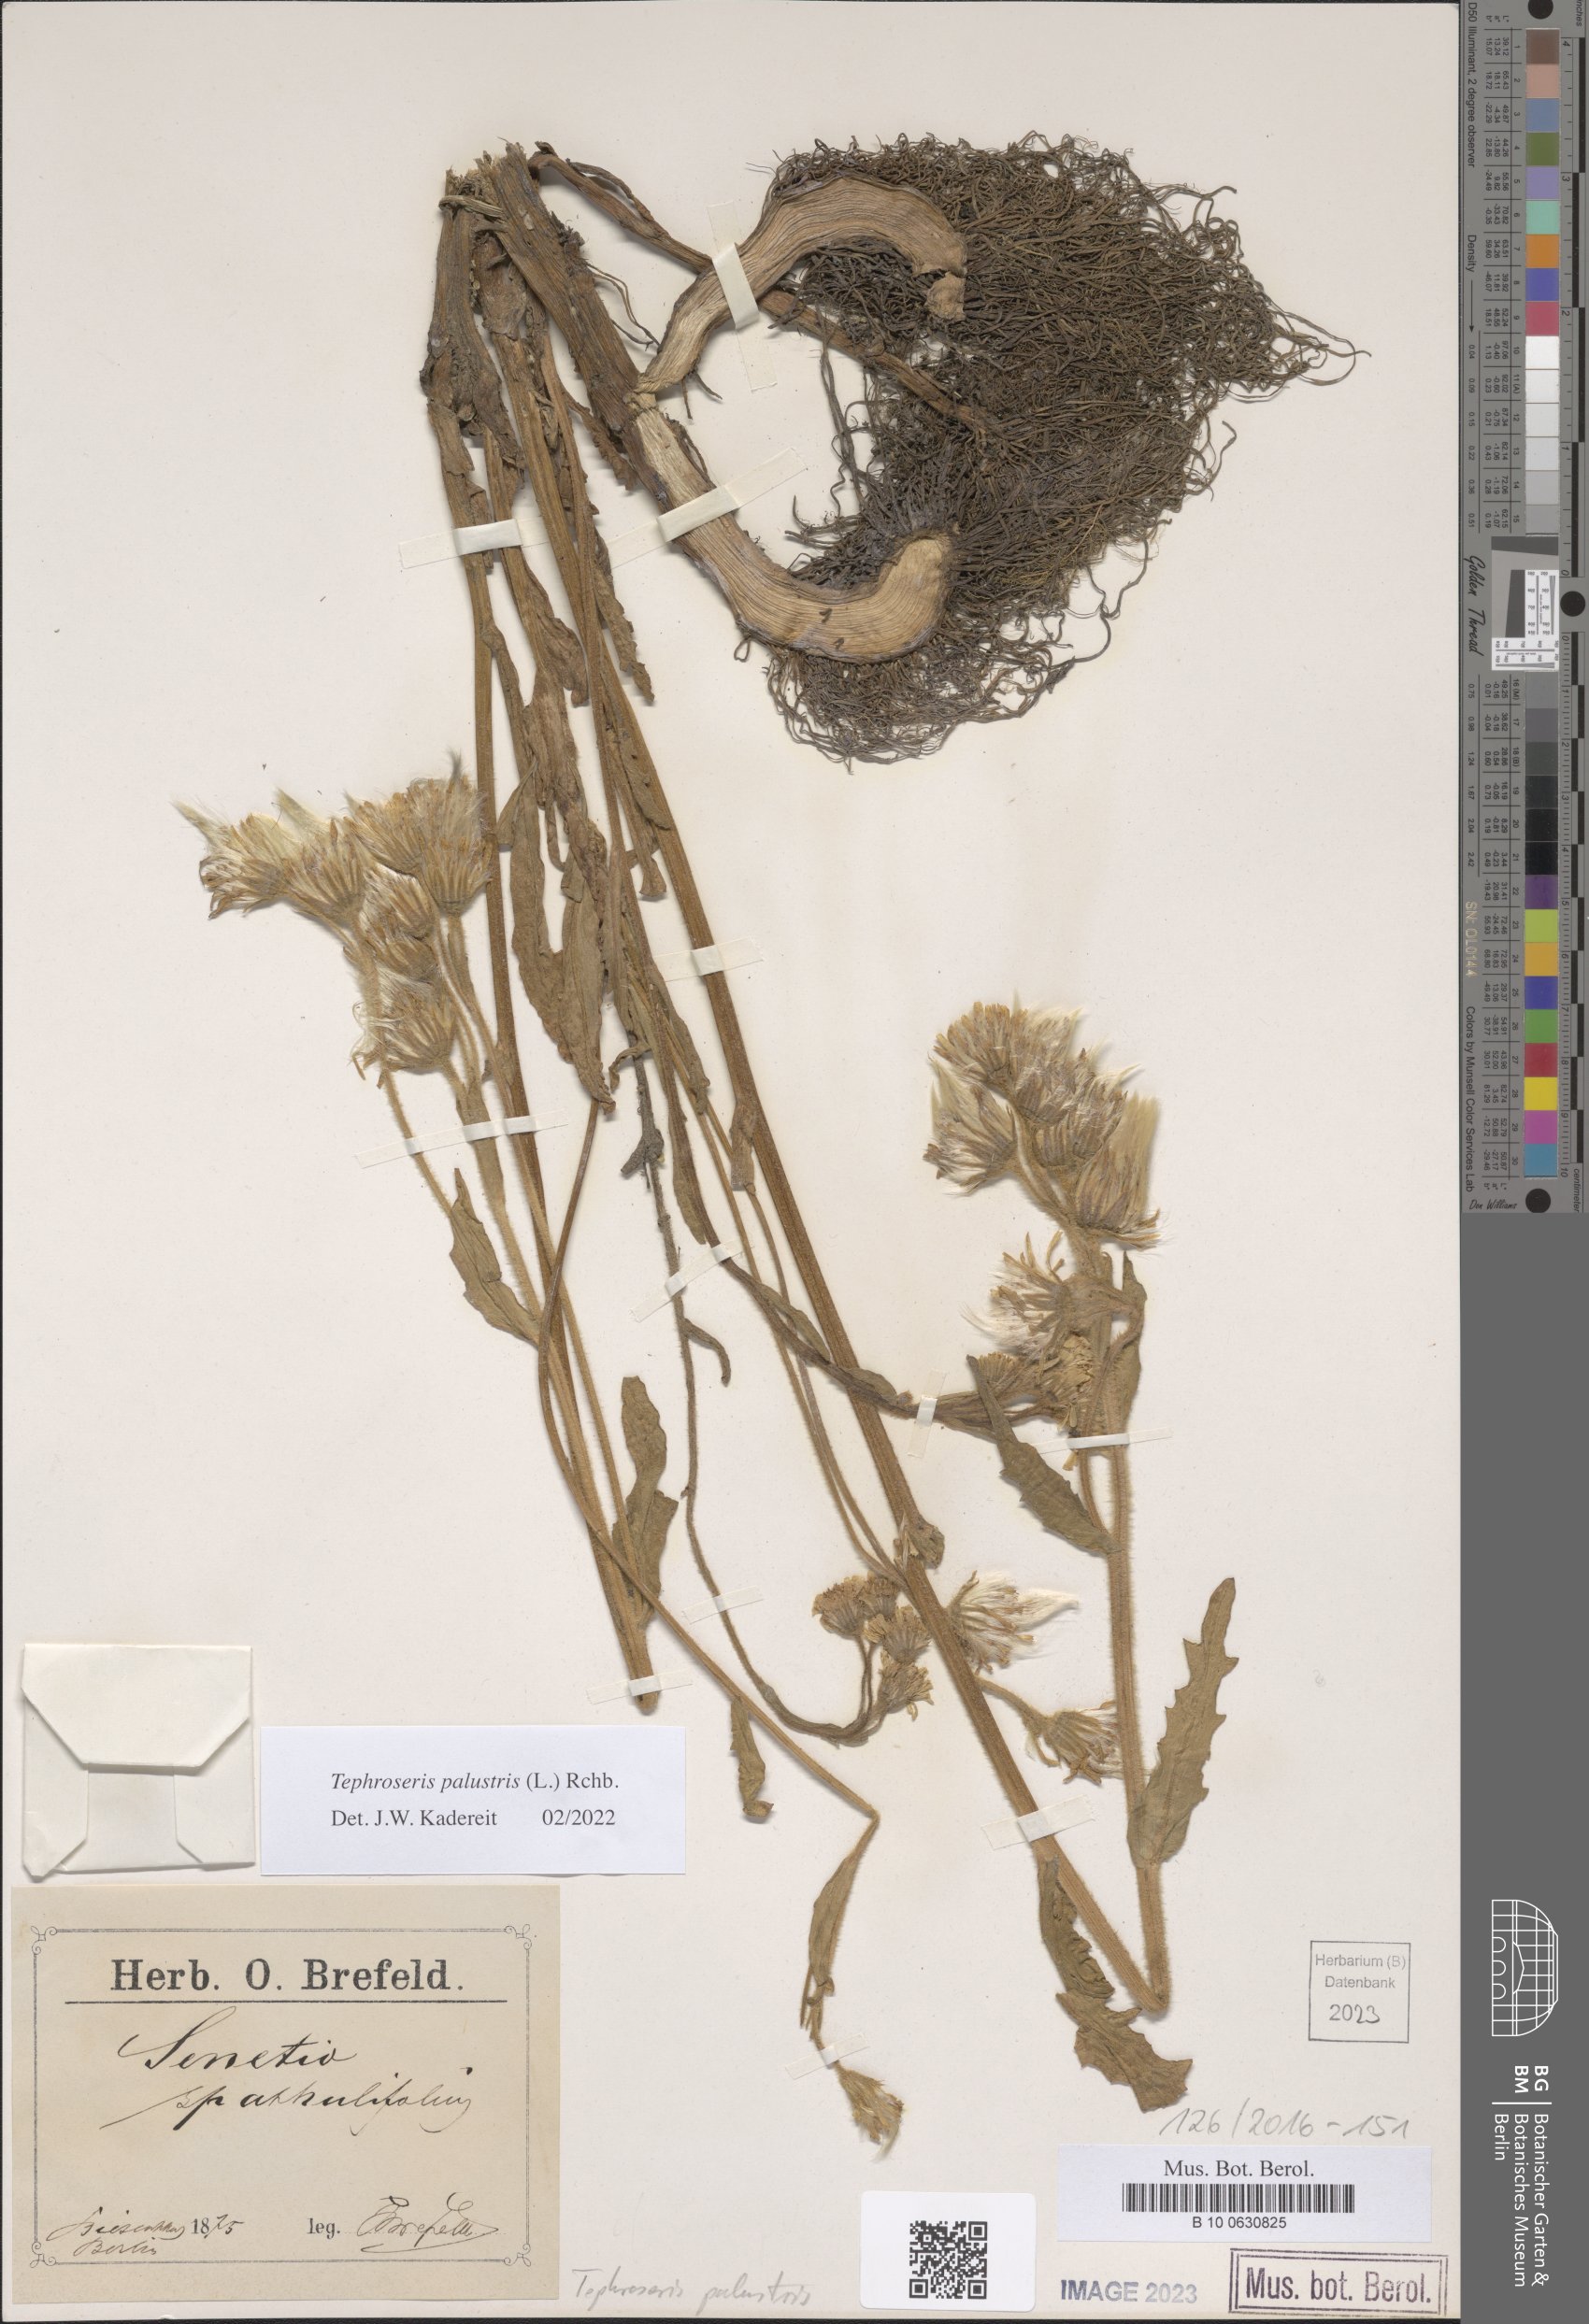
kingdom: Plantae
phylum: Tracheophyta
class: Magnoliopsida
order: Asterales
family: Asteraceae
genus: Tephroseris
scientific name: Tephroseris palustris
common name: Marsh fleawort
